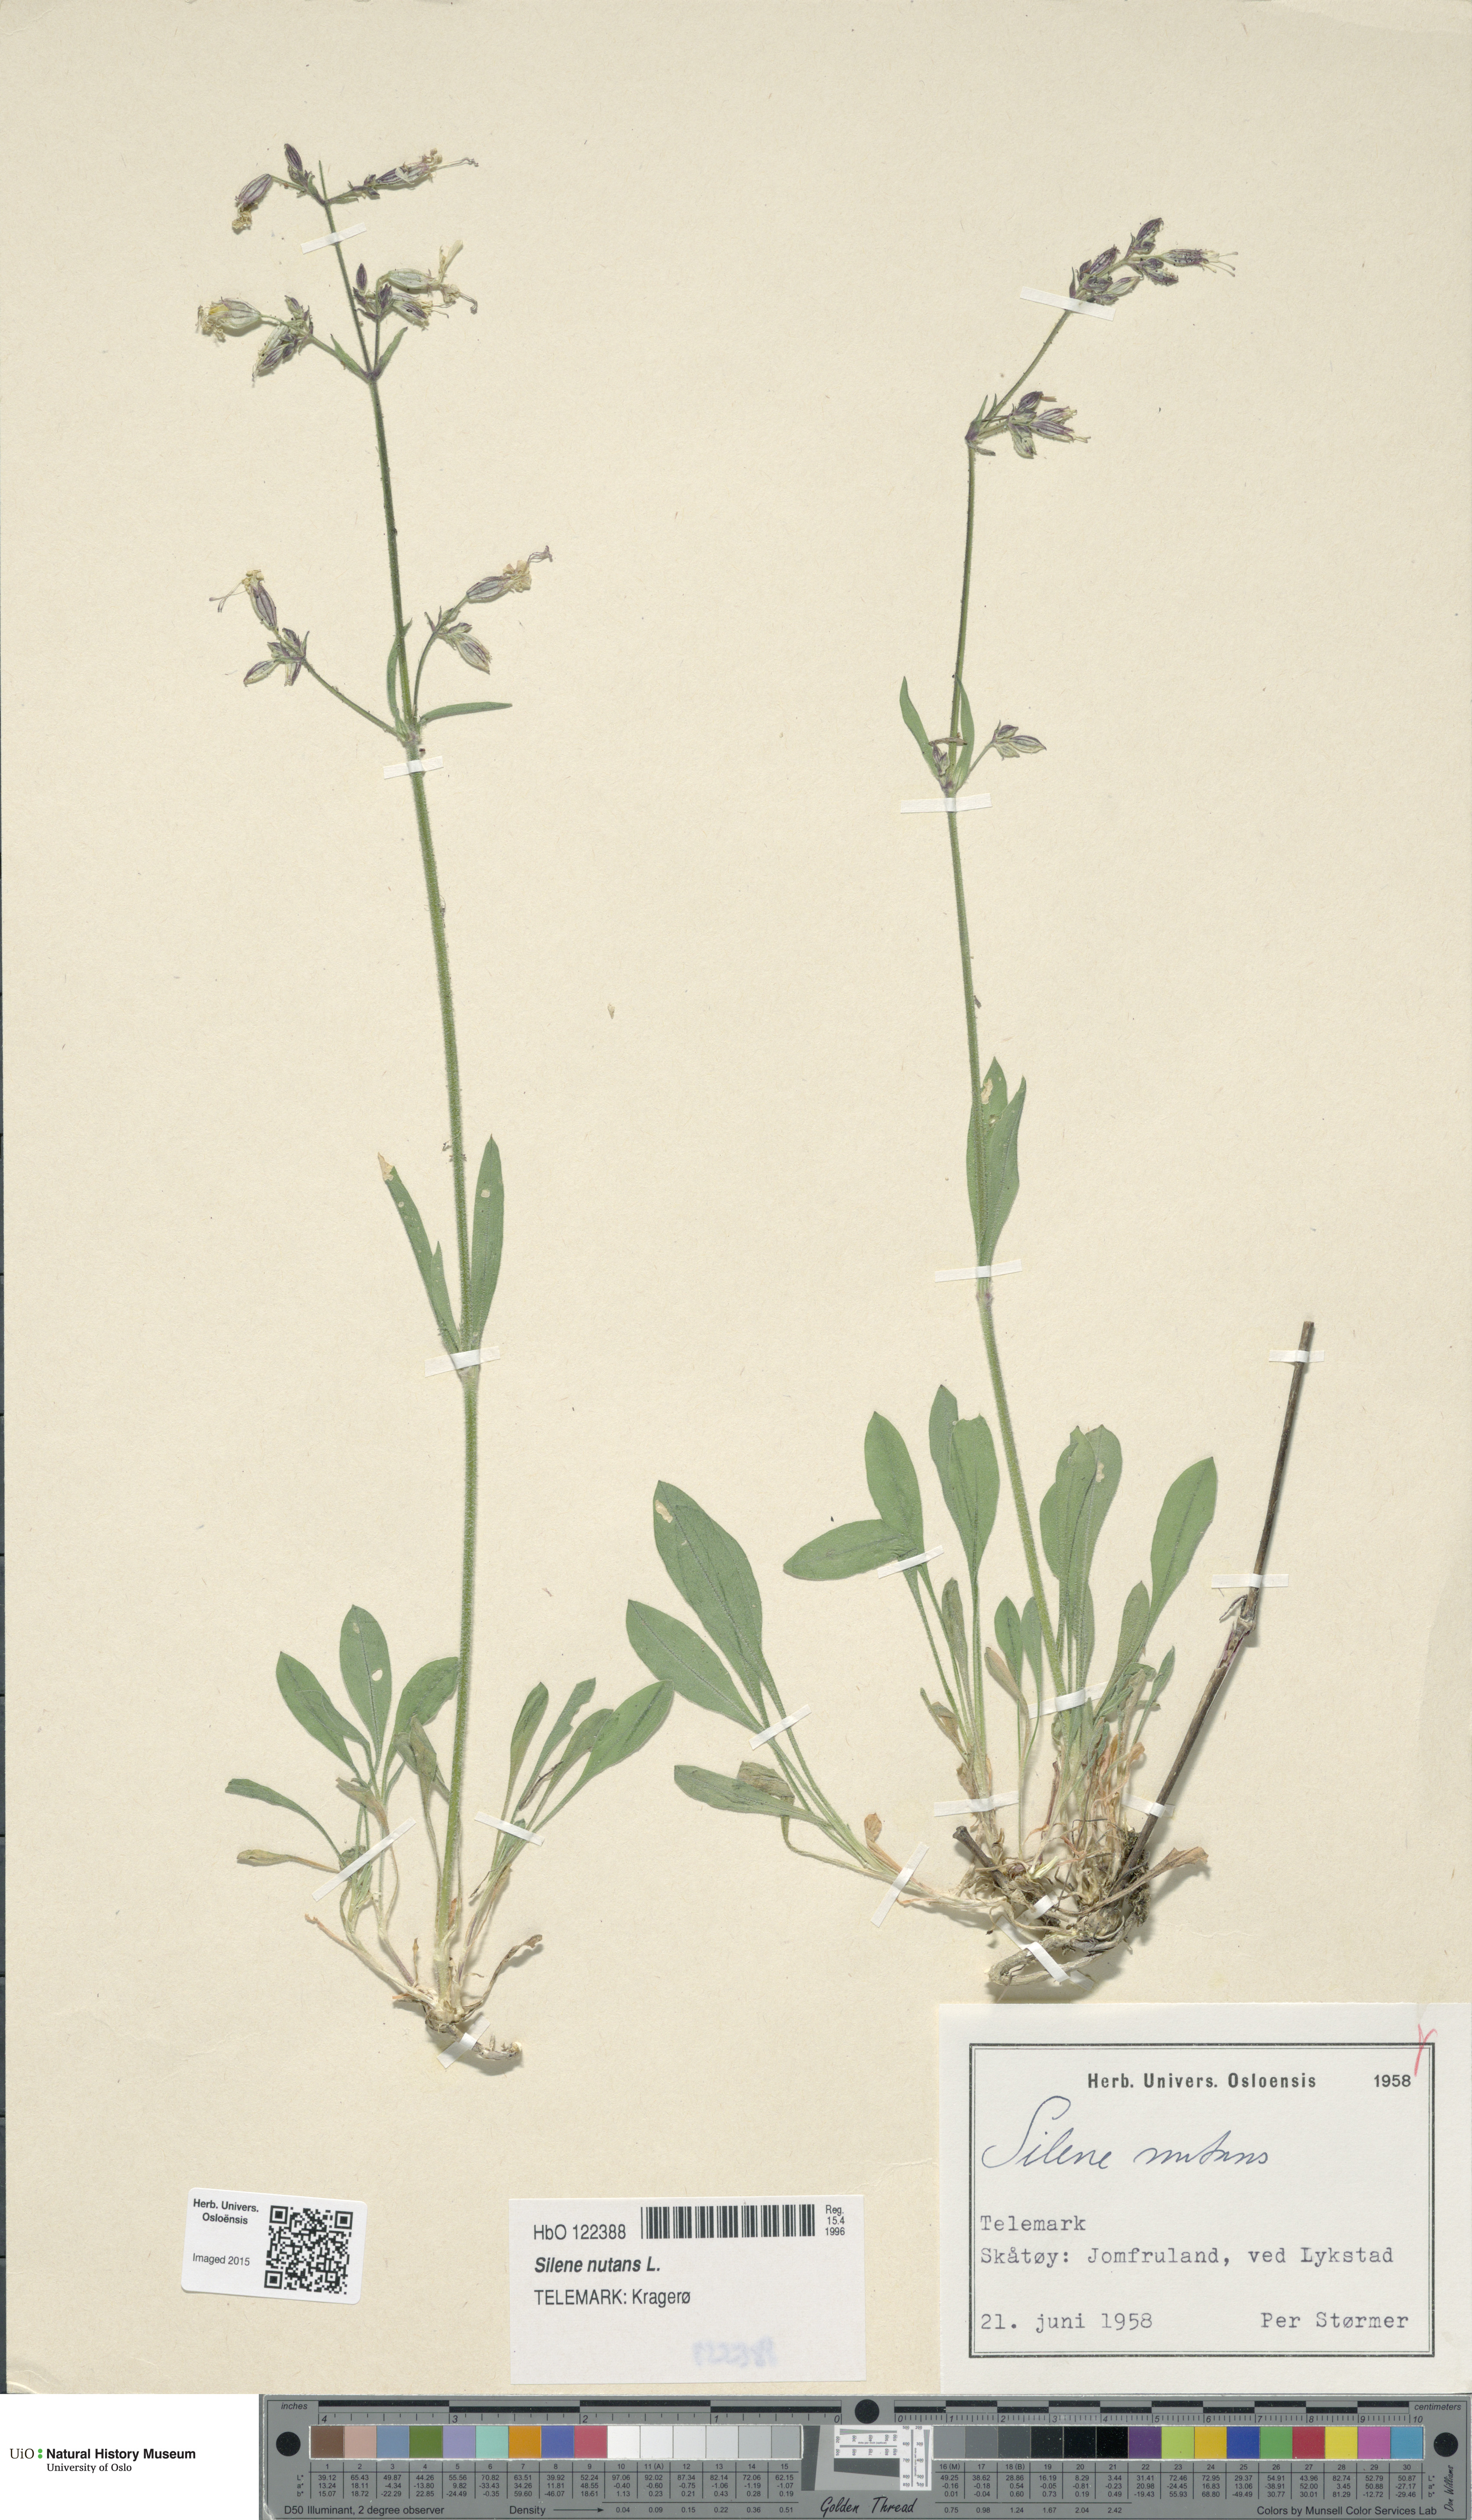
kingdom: Plantae
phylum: Tracheophyta
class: Magnoliopsida
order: Caryophyllales
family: Caryophyllaceae
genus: Silene
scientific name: Silene nutans
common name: Nottingham catchfly
